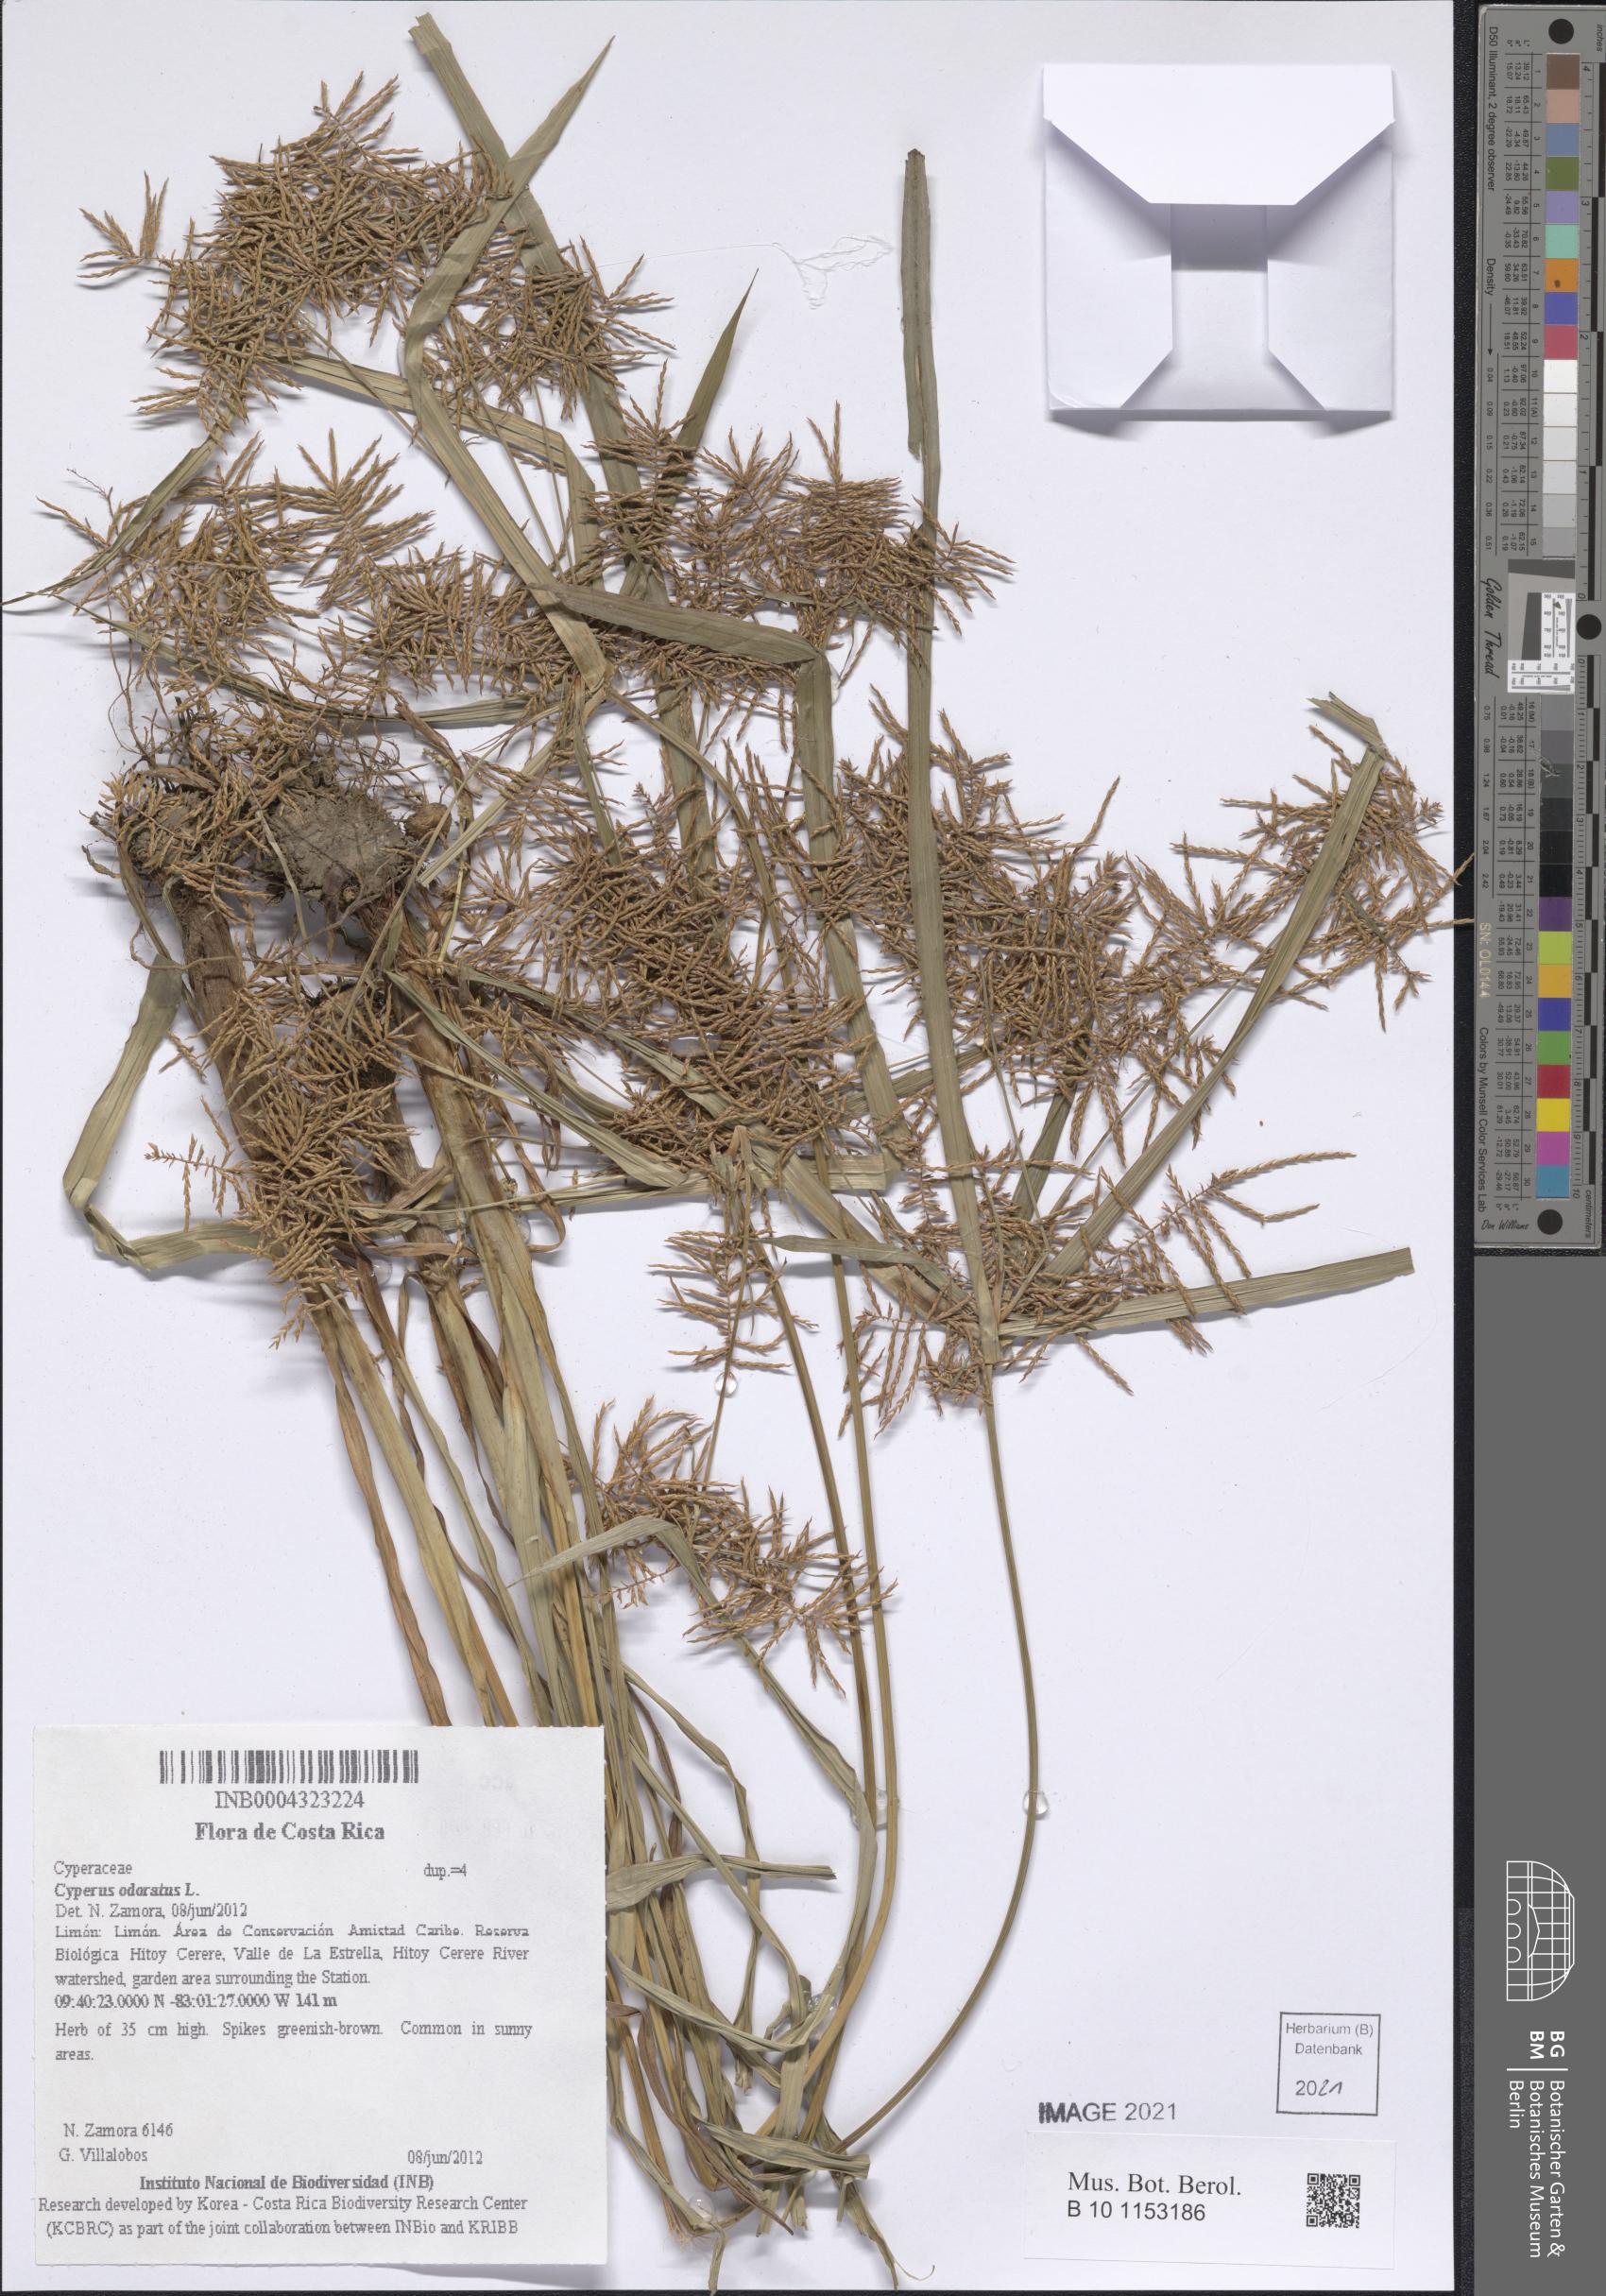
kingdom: Plantae
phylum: Tracheophyta
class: Liliopsida
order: Poales
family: Cyperaceae
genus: Cyperus
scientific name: Cyperus odoratus
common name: Fragrant flatsedge
